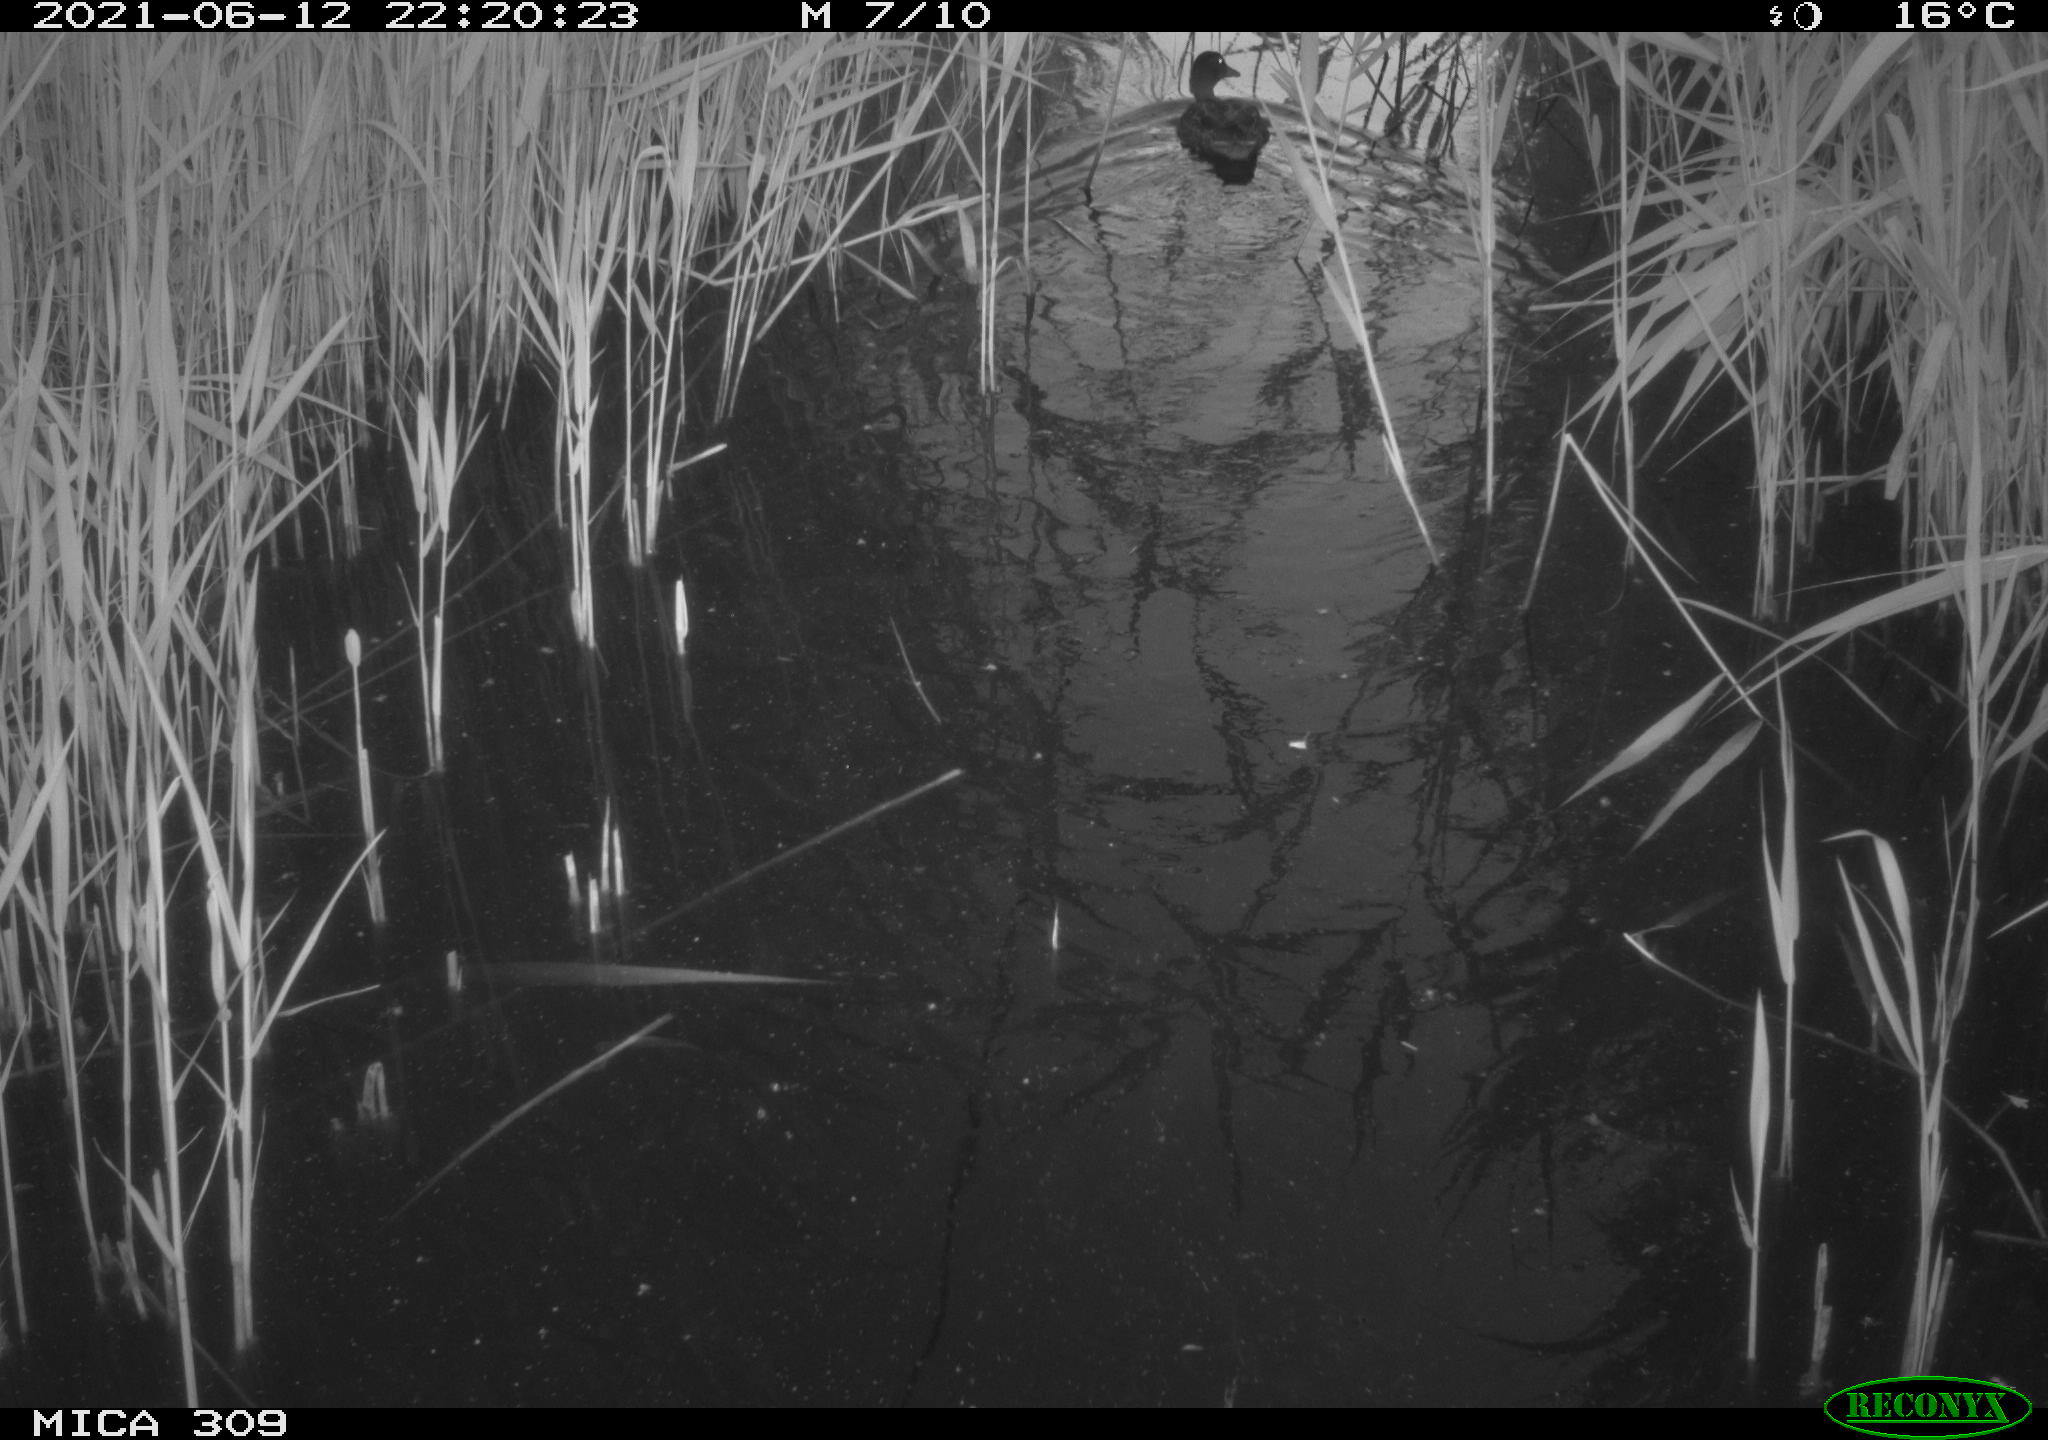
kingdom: Animalia
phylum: Chordata
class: Aves
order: Anseriformes
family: Anatidae
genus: Anas
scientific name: Anas platyrhynchos
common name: Mallard
